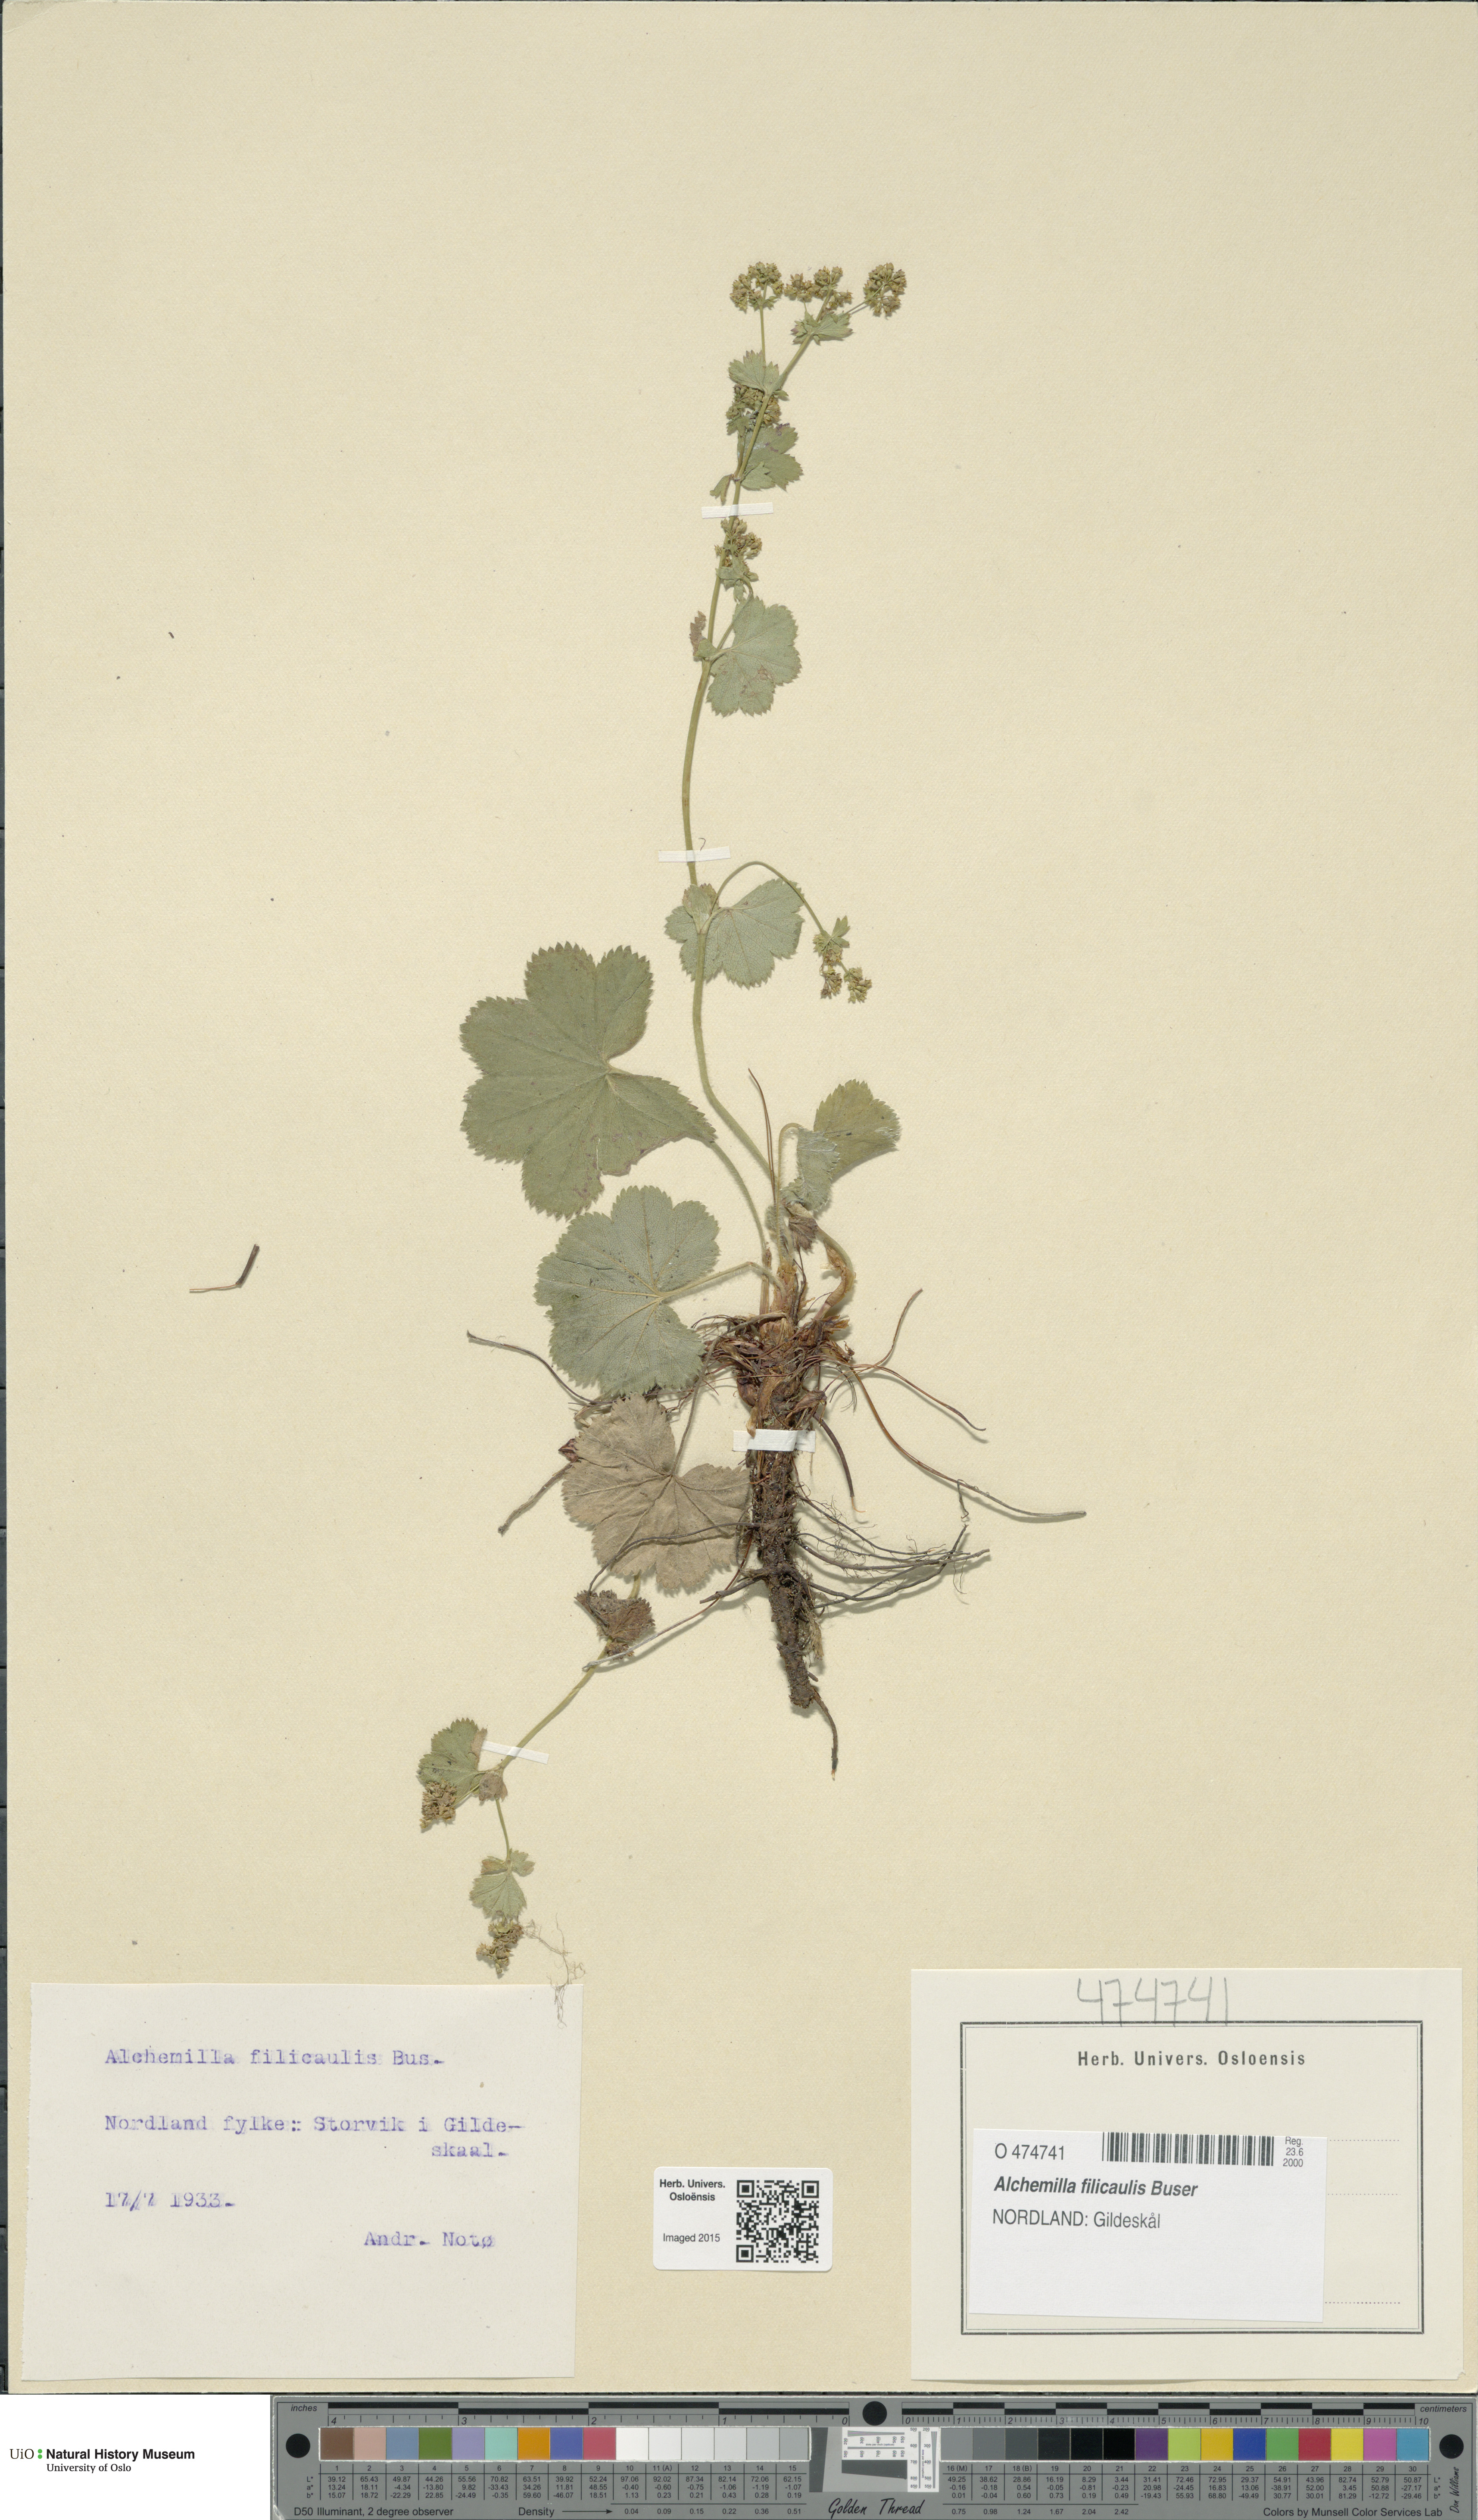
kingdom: Plantae
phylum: Tracheophyta
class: Magnoliopsida
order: Rosales
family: Rosaceae
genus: Alchemilla
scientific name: Alchemilla filicaulis
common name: Hairy lady's-mantle
